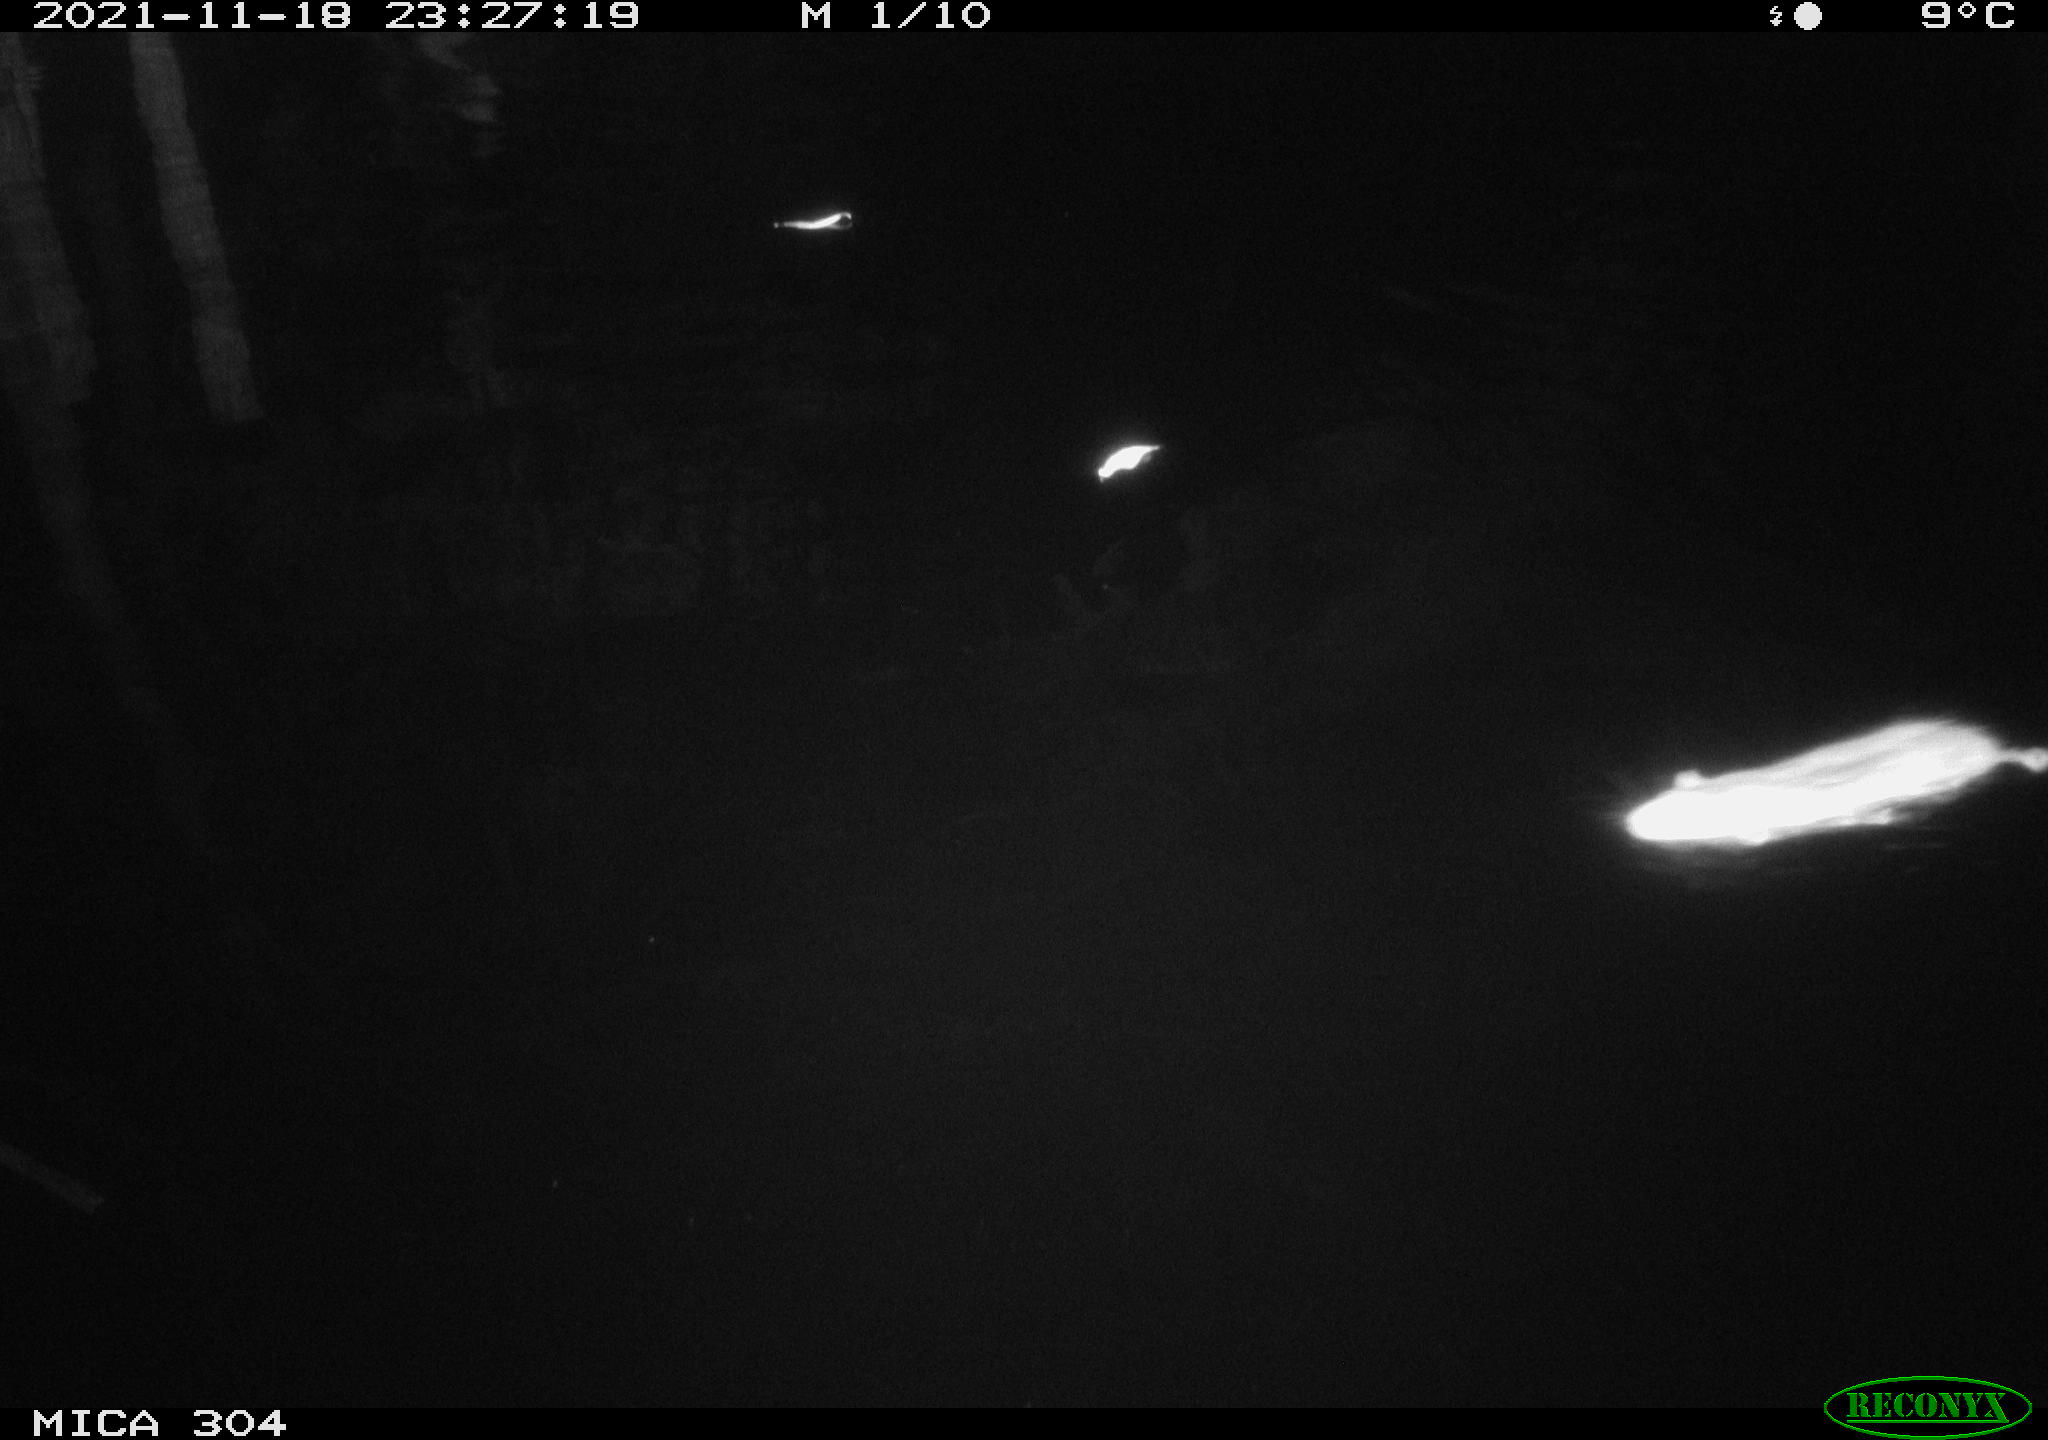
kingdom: Animalia
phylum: Chordata
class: Mammalia
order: Rodentia
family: Muridae
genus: Rattus
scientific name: Rattus norvegicus
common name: Brown rat
